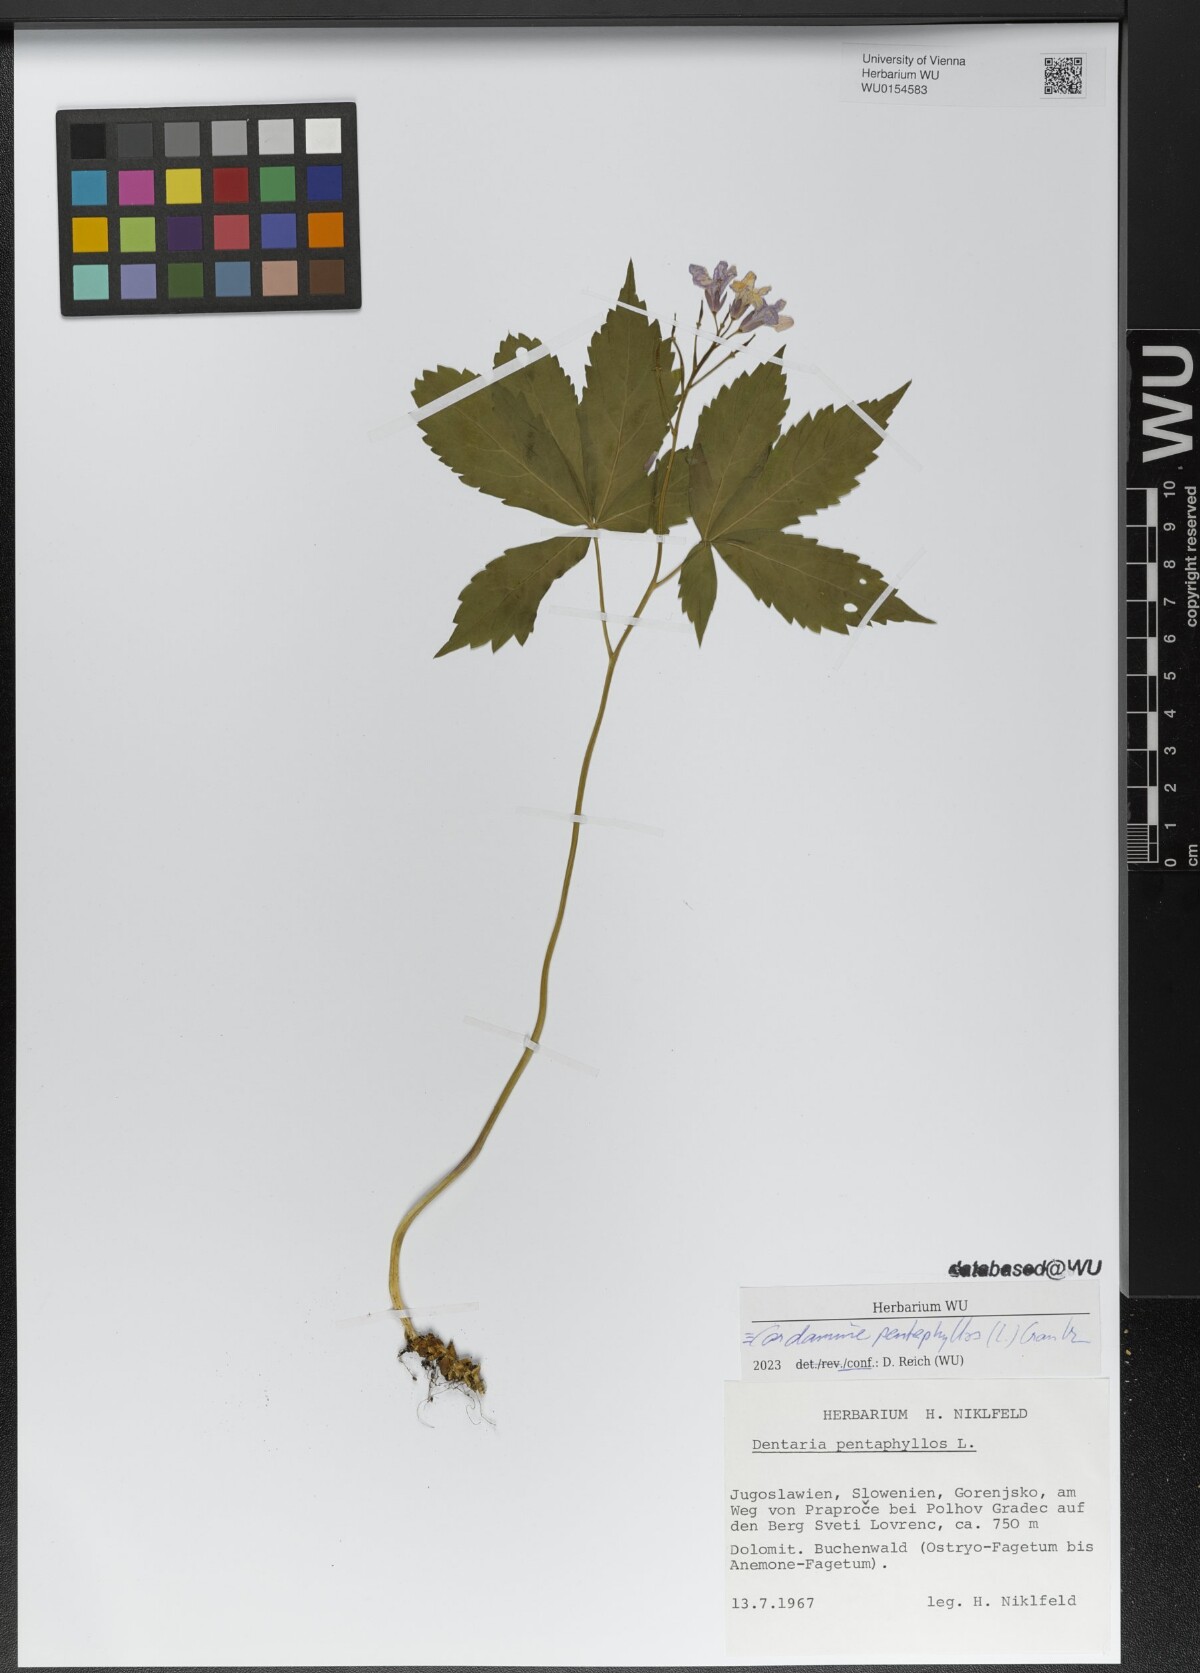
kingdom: Plantae
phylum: Tracheophyta
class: Magnoliopsida
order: Brassicales
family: Brassicaceae
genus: Cardamine
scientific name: Cardamine pentaphyllos
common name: Five-leaflet bitter-cress
